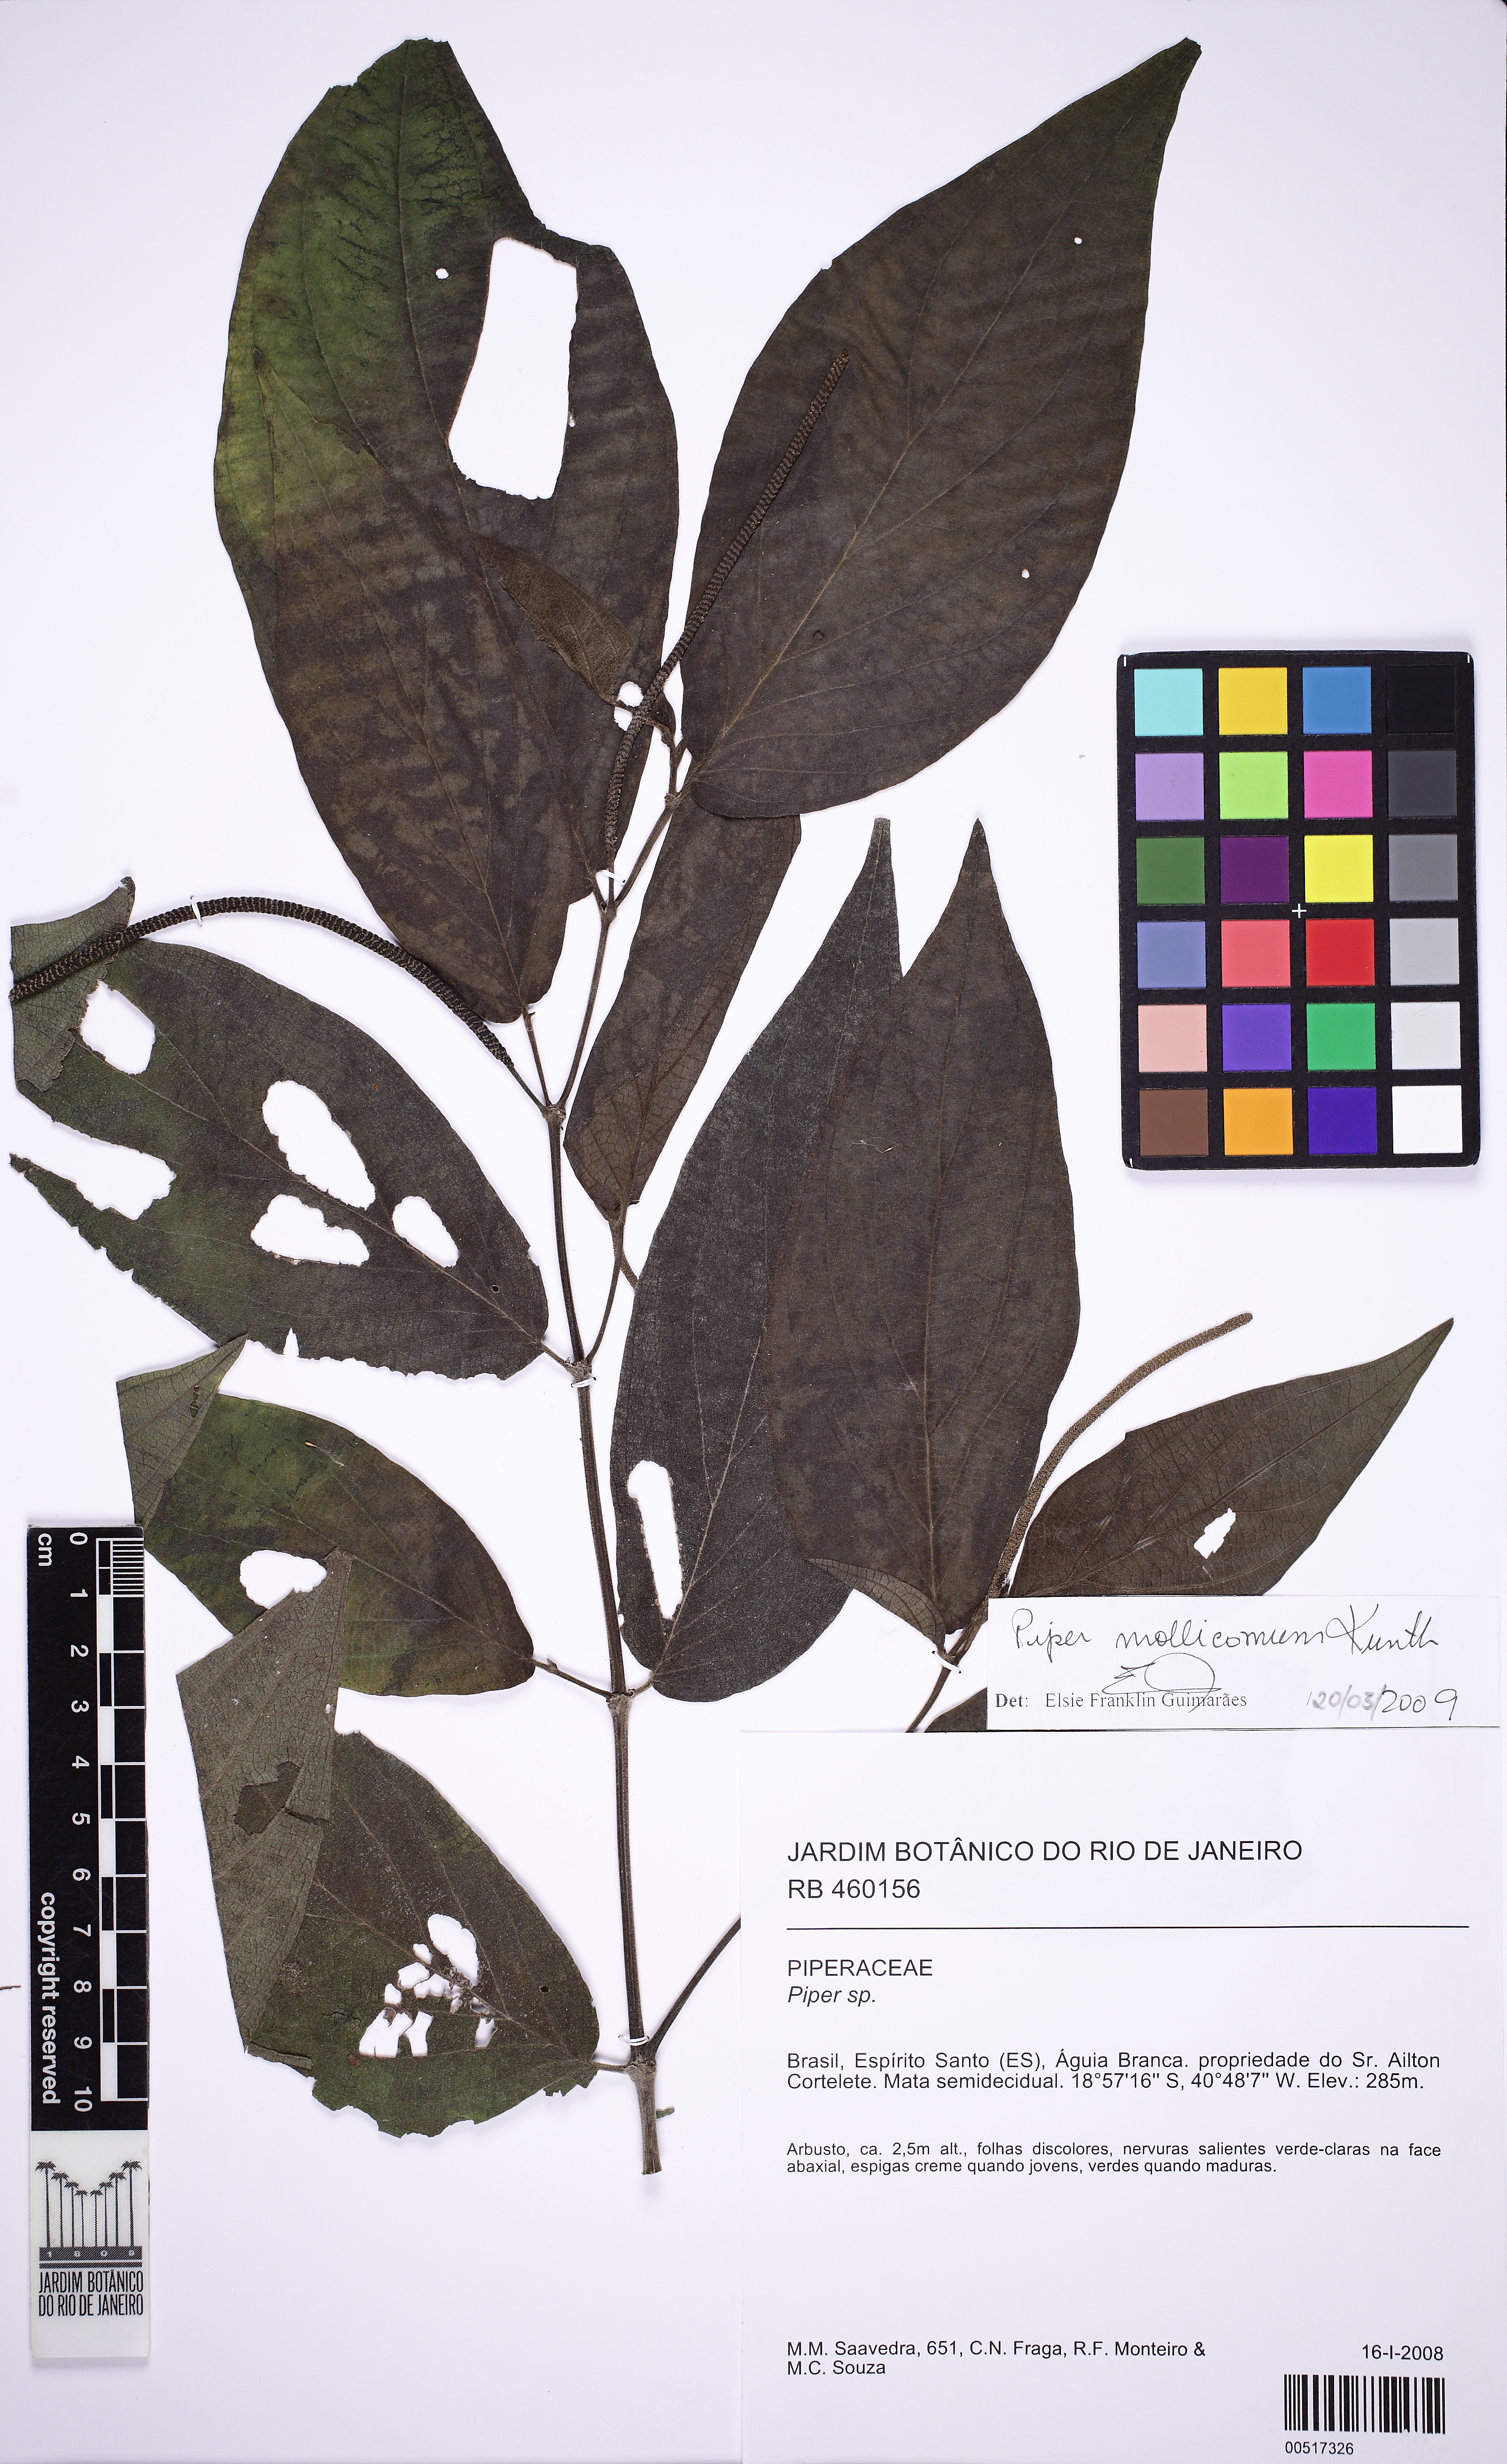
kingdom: Plantae
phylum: Tracheophyta
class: Magnoliopsida
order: Piperales
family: Piperaceae
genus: Piper
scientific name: Piper mollicomum
